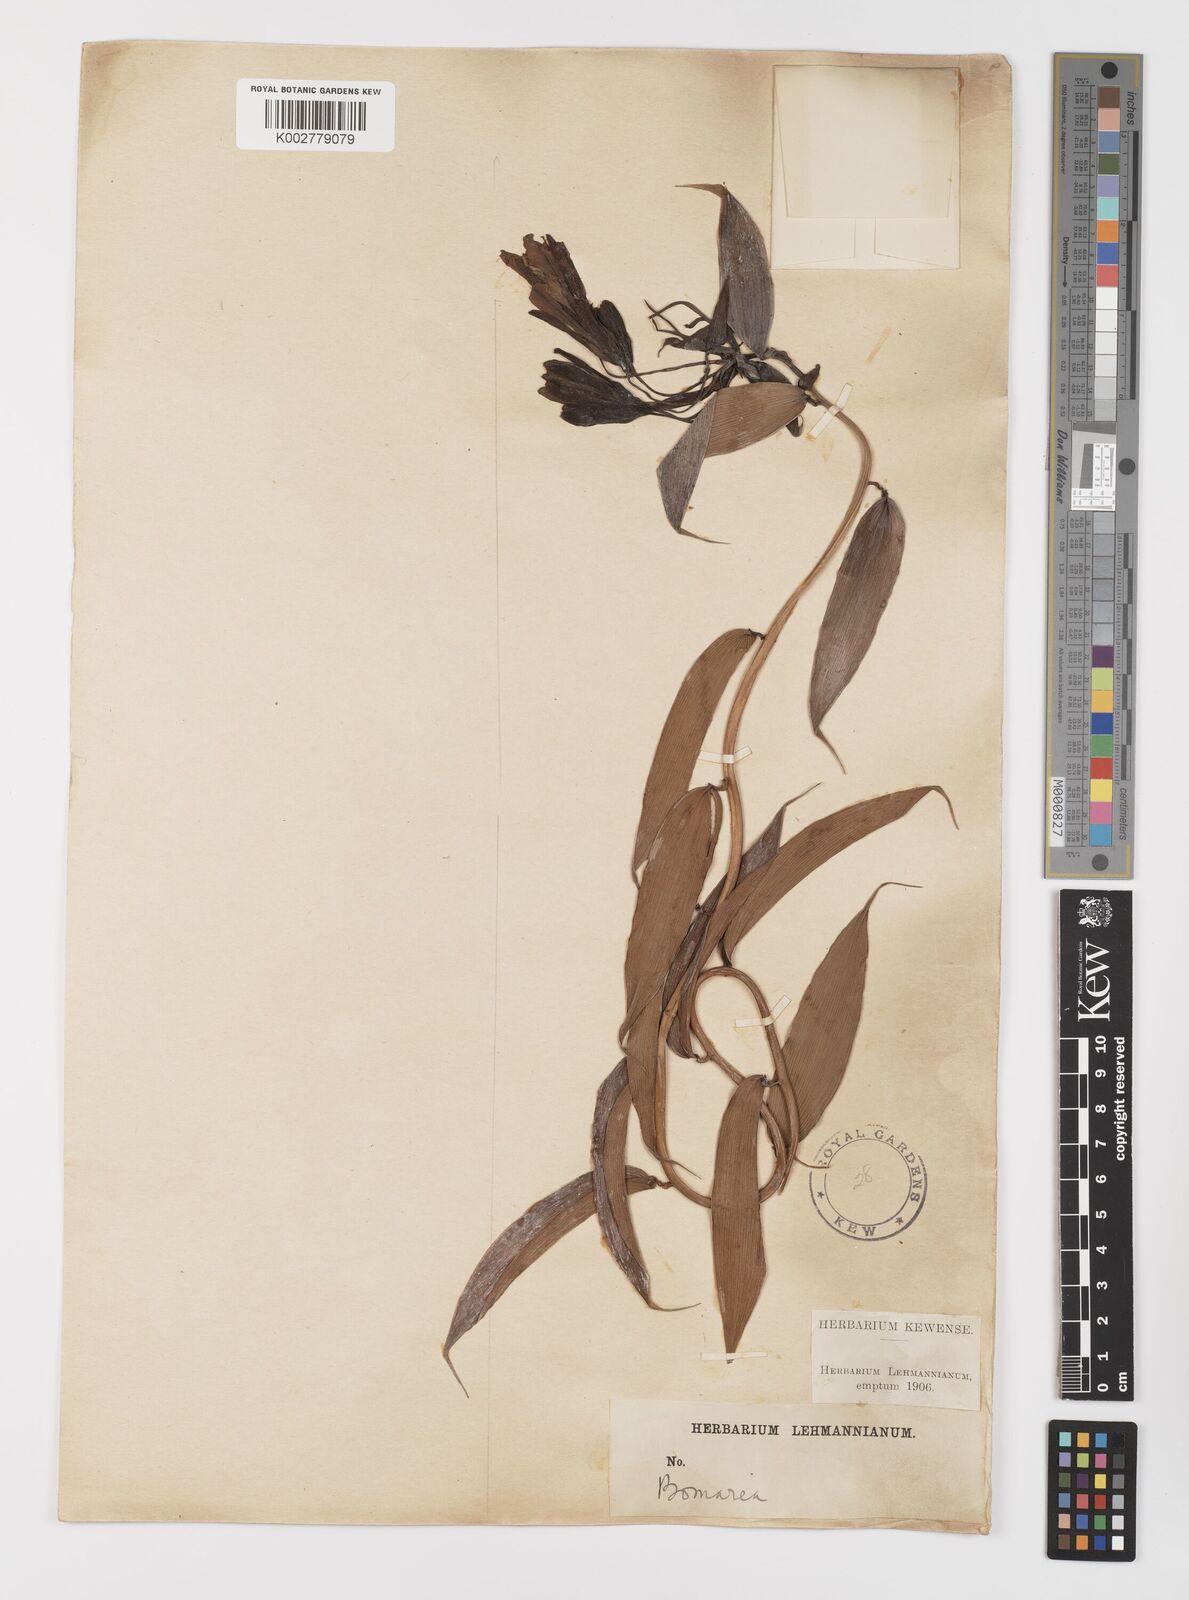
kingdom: Plantae
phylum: Tracheophyta
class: Liliopsida
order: Liliales
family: Alstroemeriaceae
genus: Bomarea
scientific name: Bomarea
